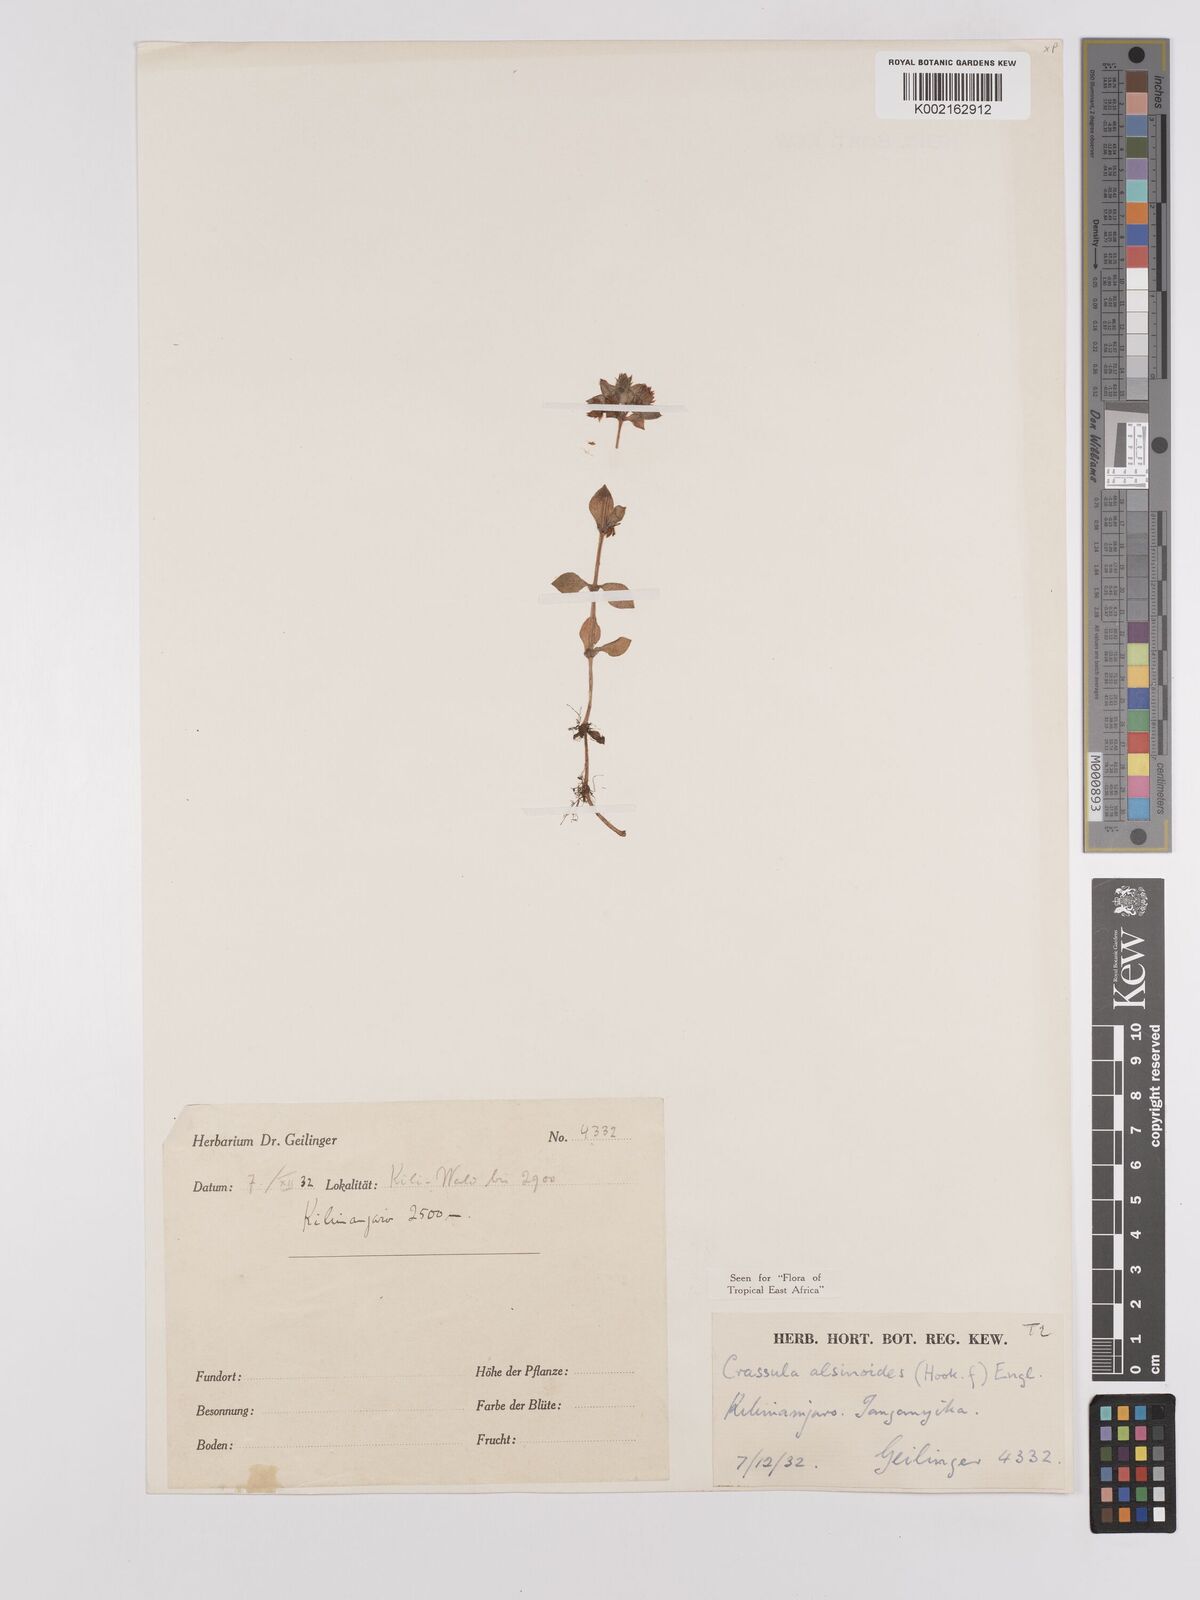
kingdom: Plantae
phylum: Tracheophyta
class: Magnoliopsida
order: Saxifragales
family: Crassulaceae
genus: Crassula
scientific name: Crassula alsinoides
